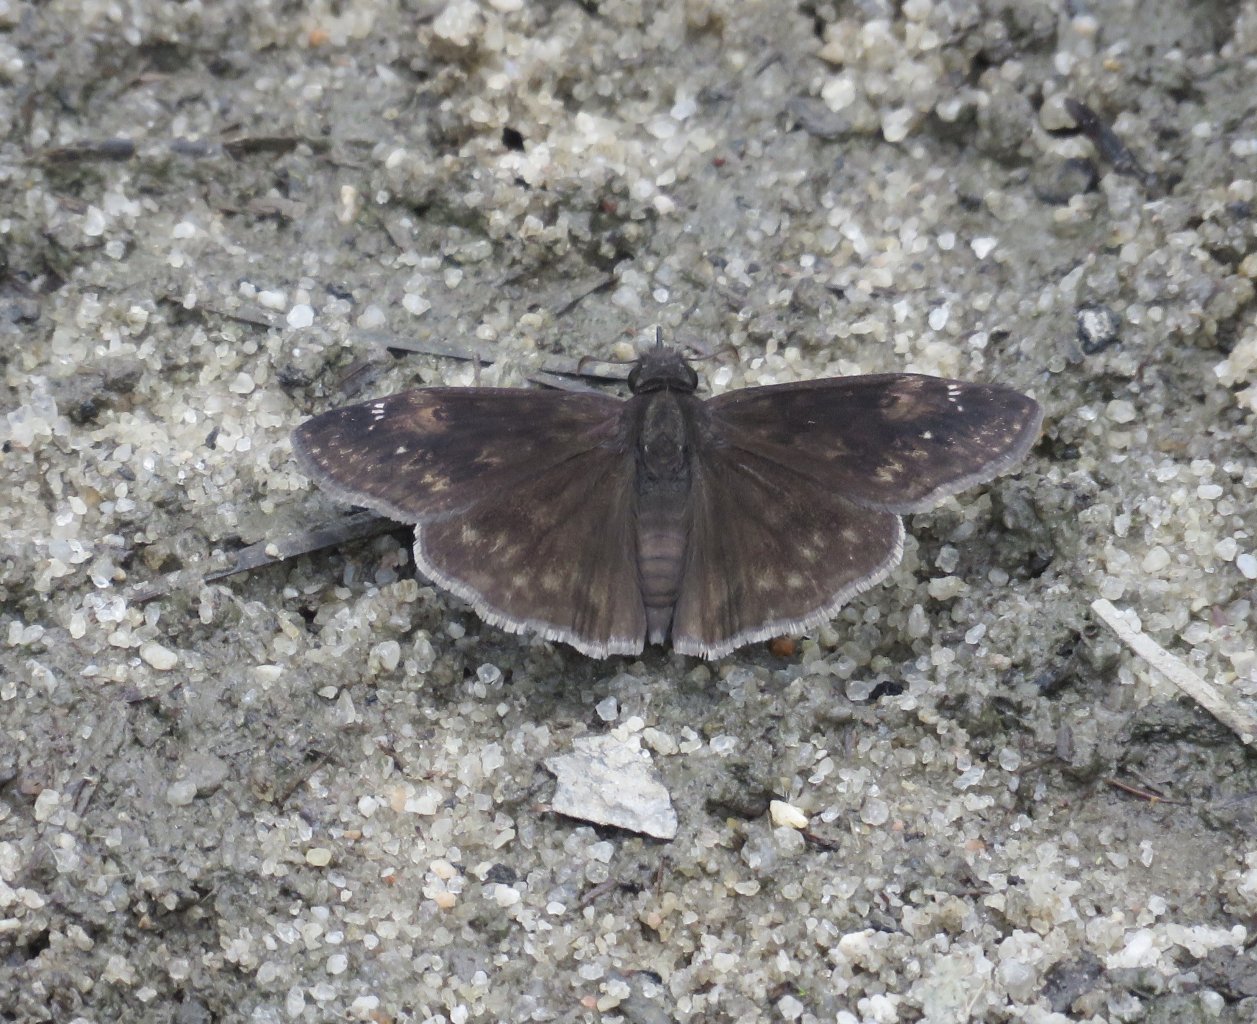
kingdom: Animalia
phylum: Arthropoda
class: Insecta
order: Lepidoptera
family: Hesperiidae
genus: Erynnis
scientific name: Erynnis zarucco
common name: Zarucco Duskywing
